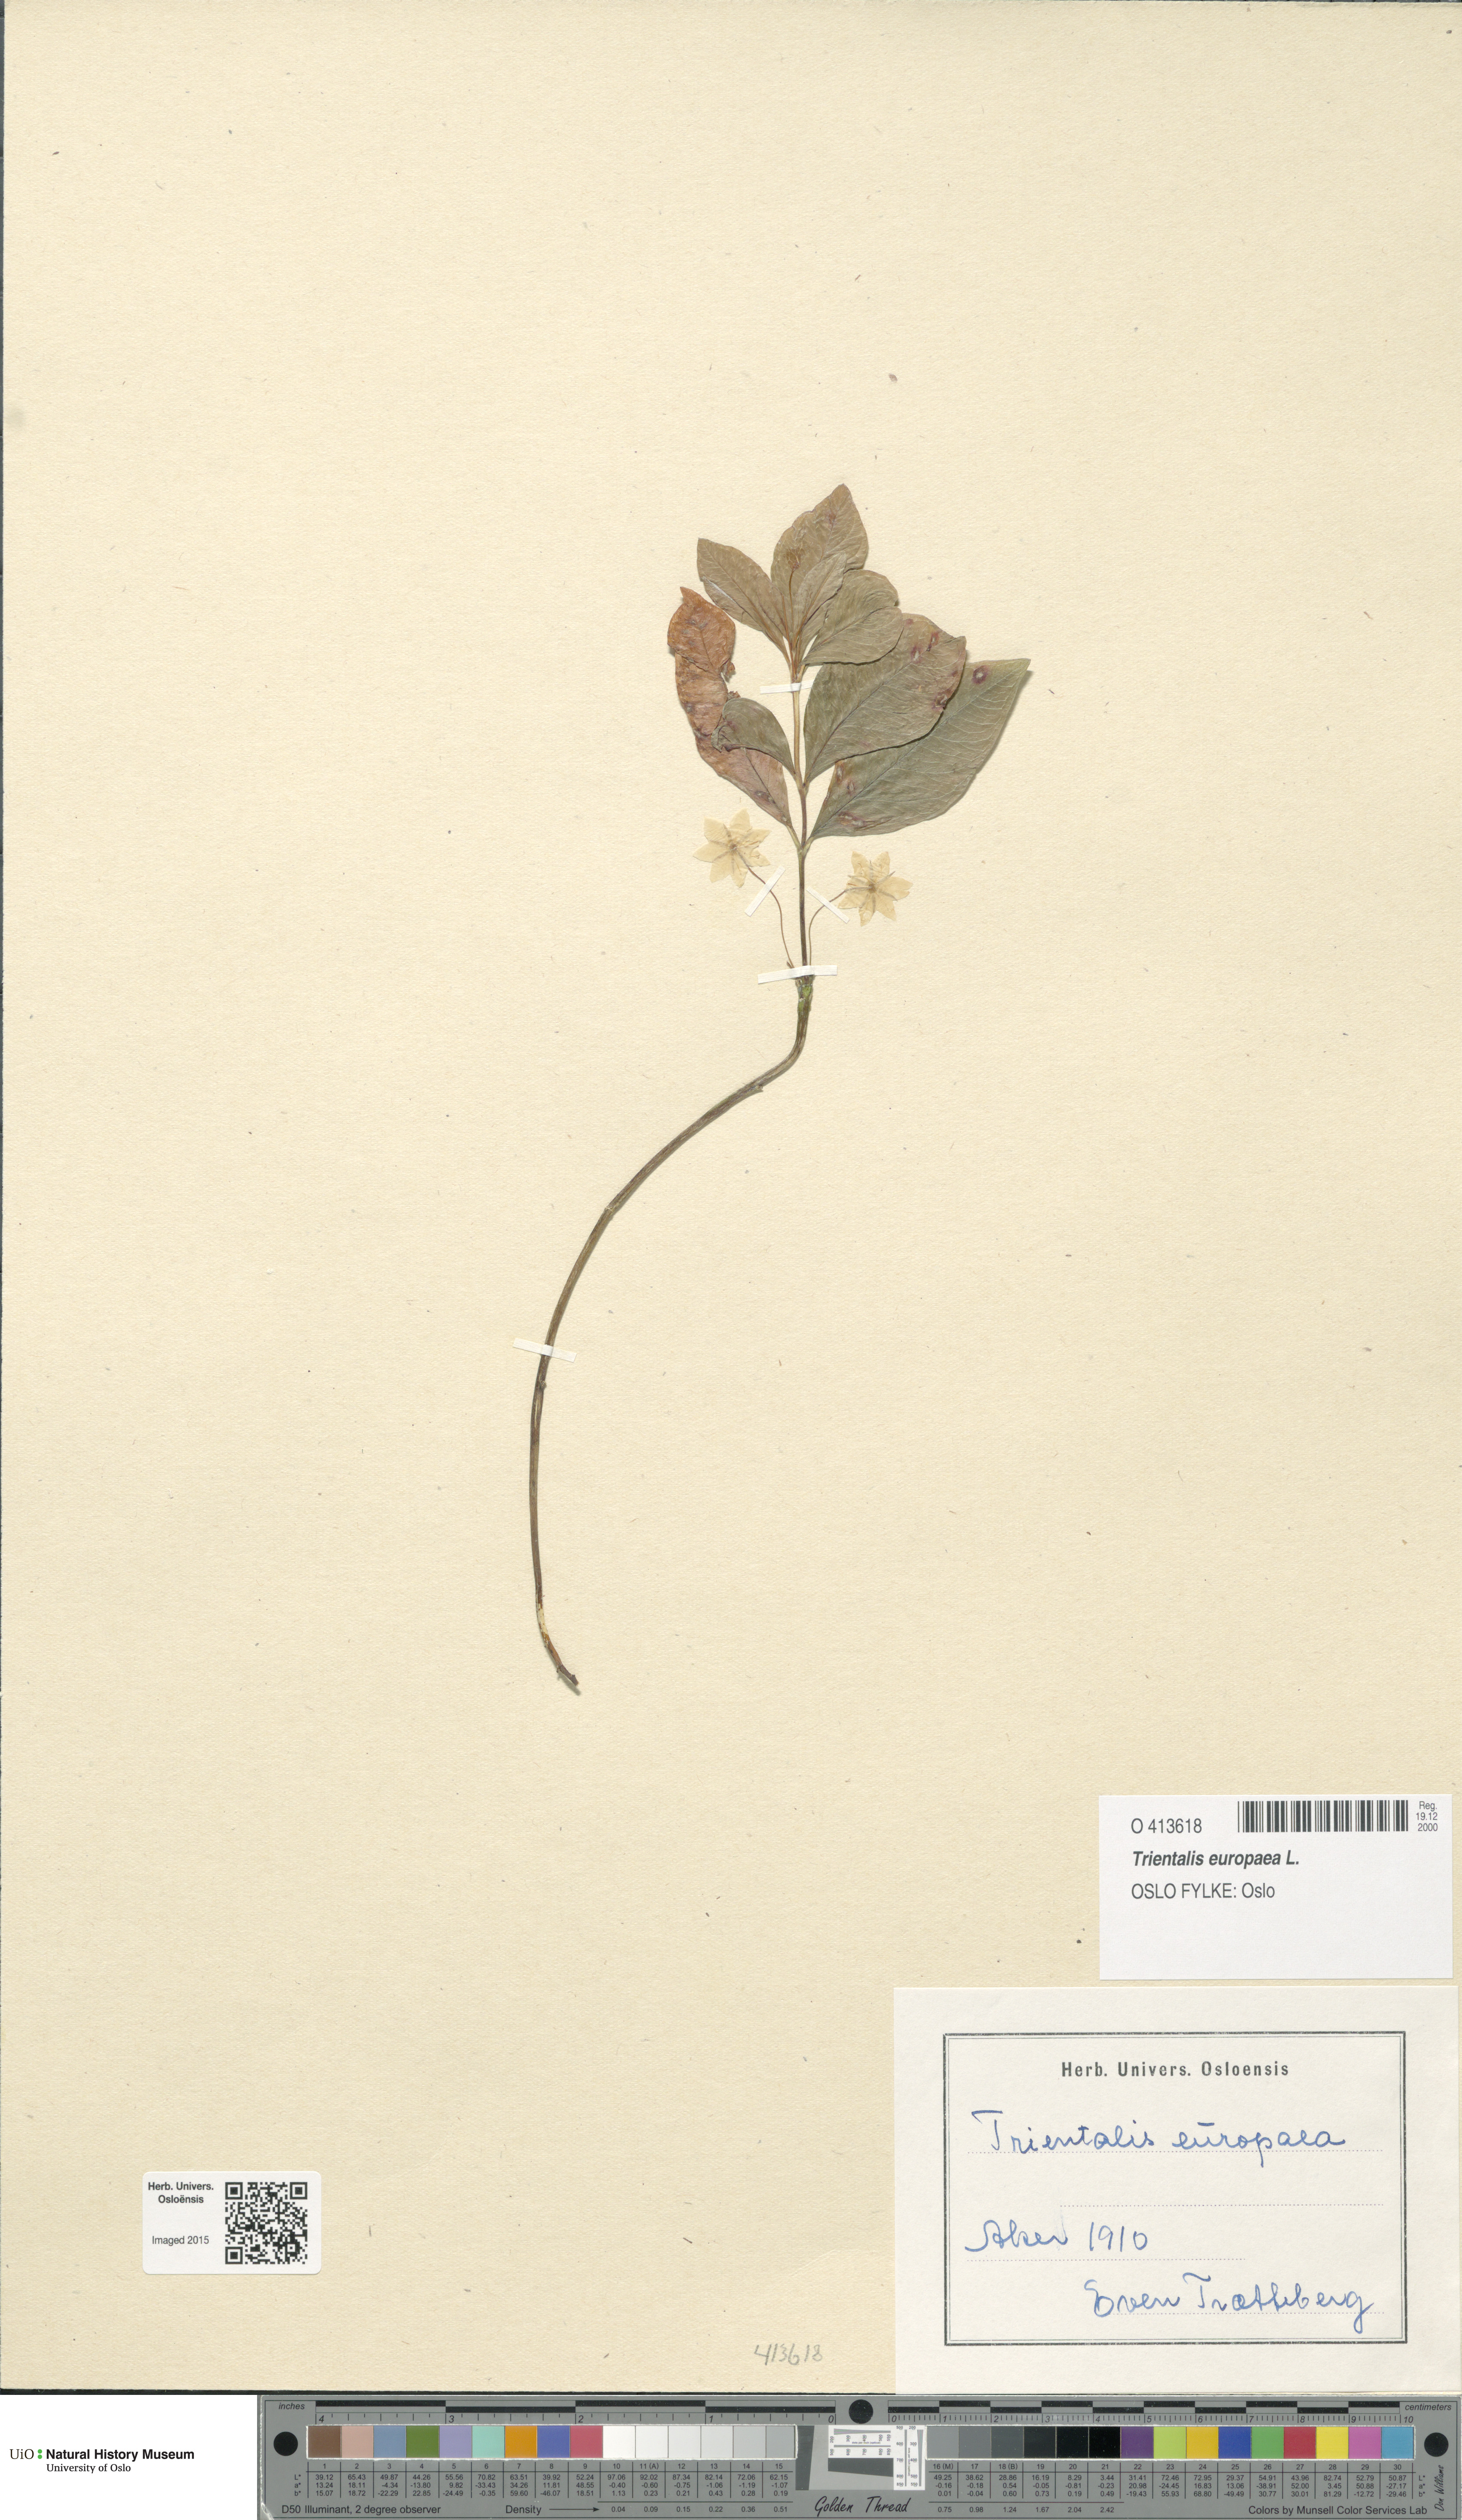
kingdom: Plantae
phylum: Tracheophyta
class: Magnoliopsida
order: Ericales
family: Primulaceae
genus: Lysimachia
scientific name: Lysimachia europaea
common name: Arctic starflower
